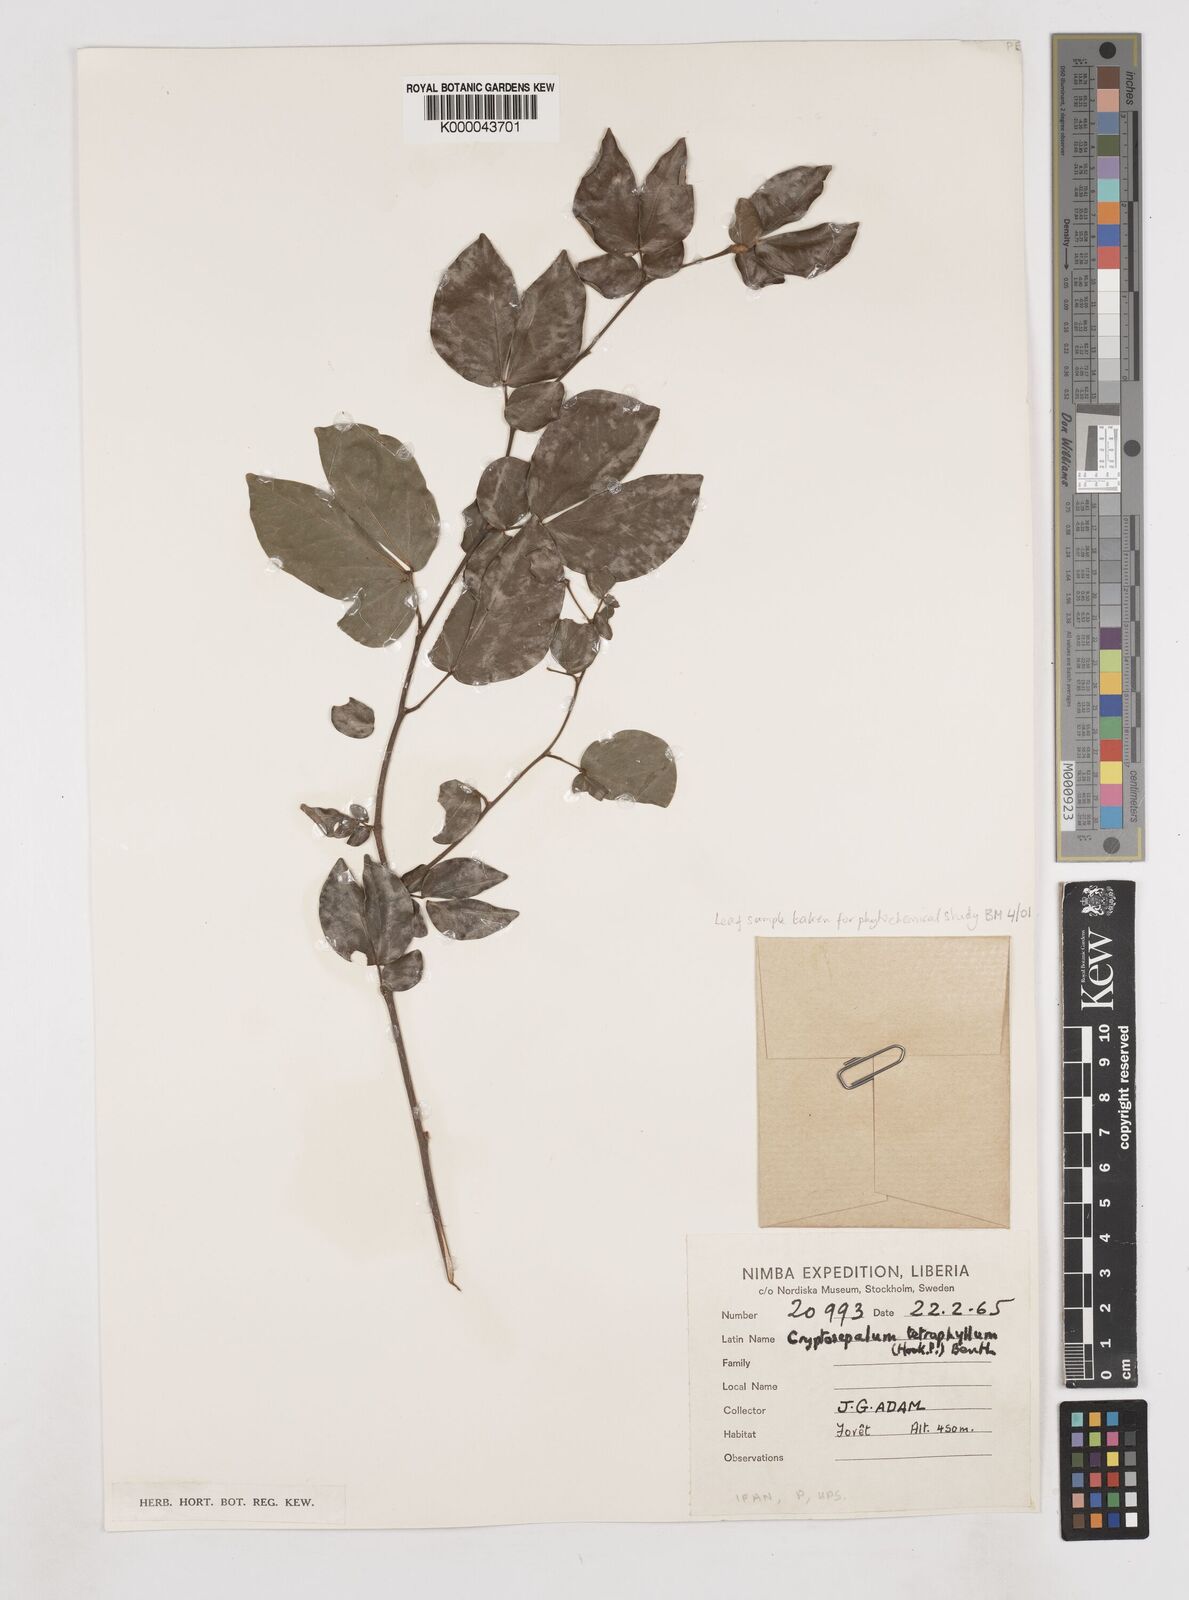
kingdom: Plantae
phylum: Tracheophyta
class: Magnoliopsida
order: Fabales
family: Fabaceae
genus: Cryptosepalum
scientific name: Cryptosepalum tetraphyllum
